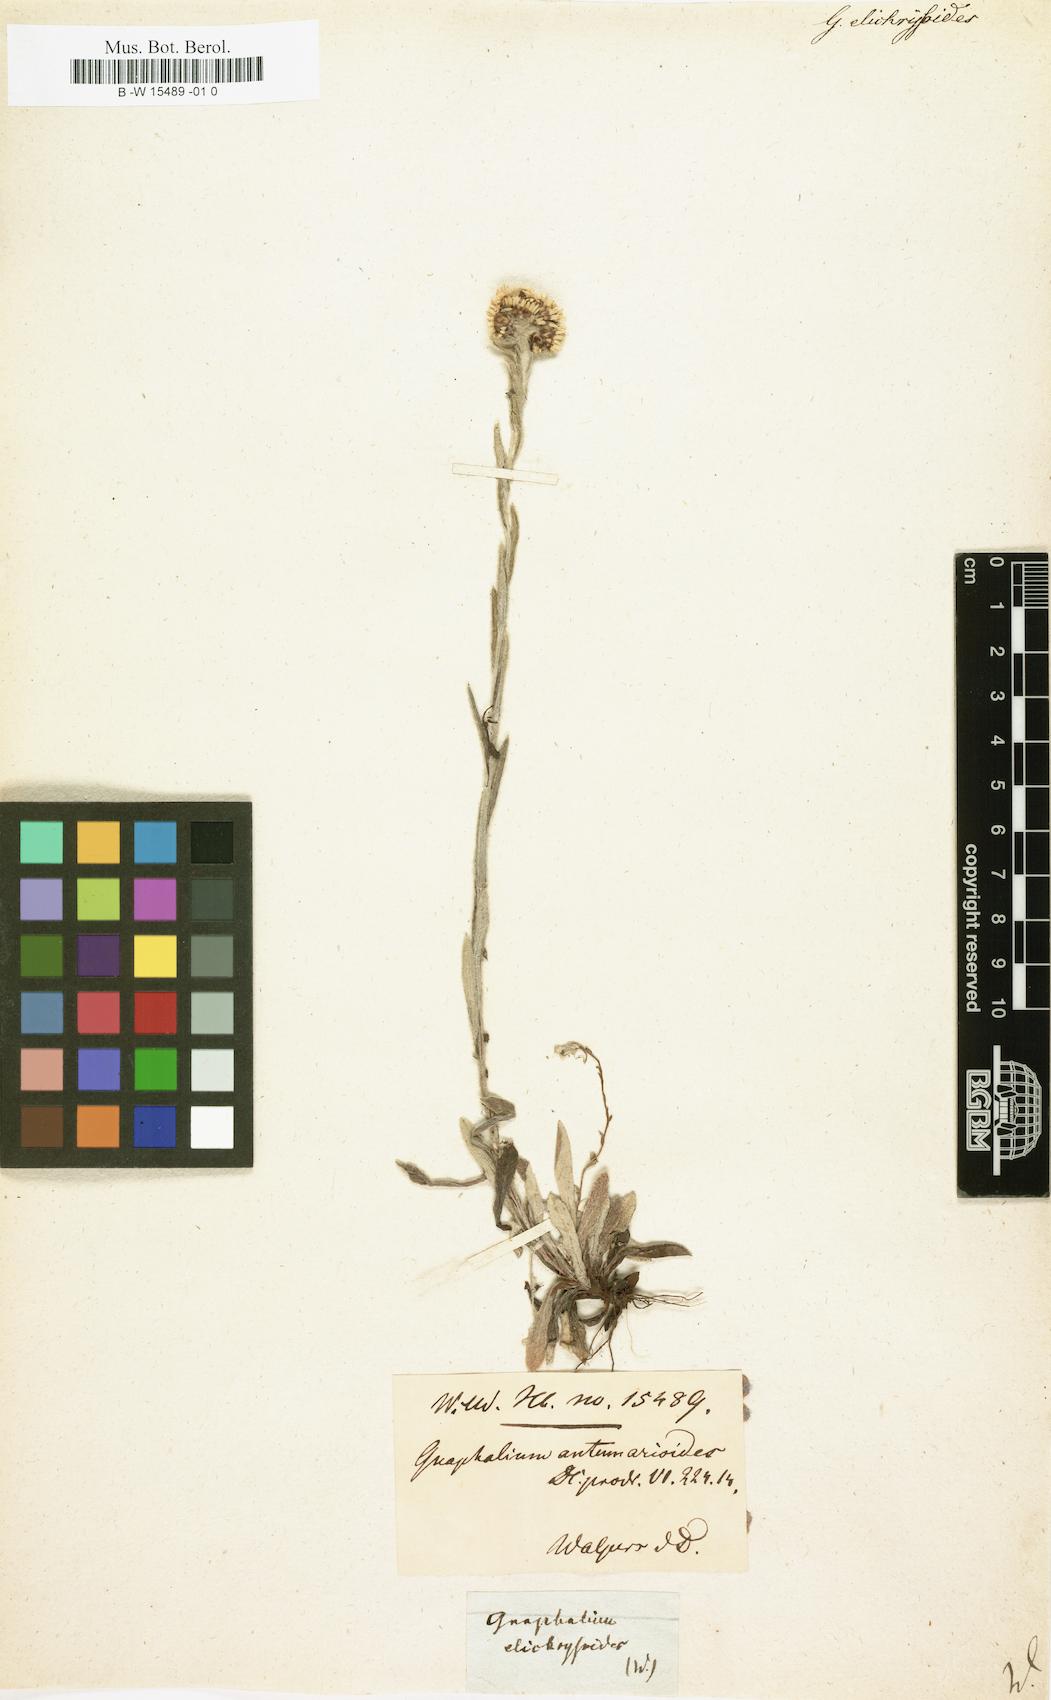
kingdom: Plantae
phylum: Tracheophyta
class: Magnoliopsida
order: Asterales
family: Asteraceae
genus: Chryselium
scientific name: Chryselium gnaphalioides
